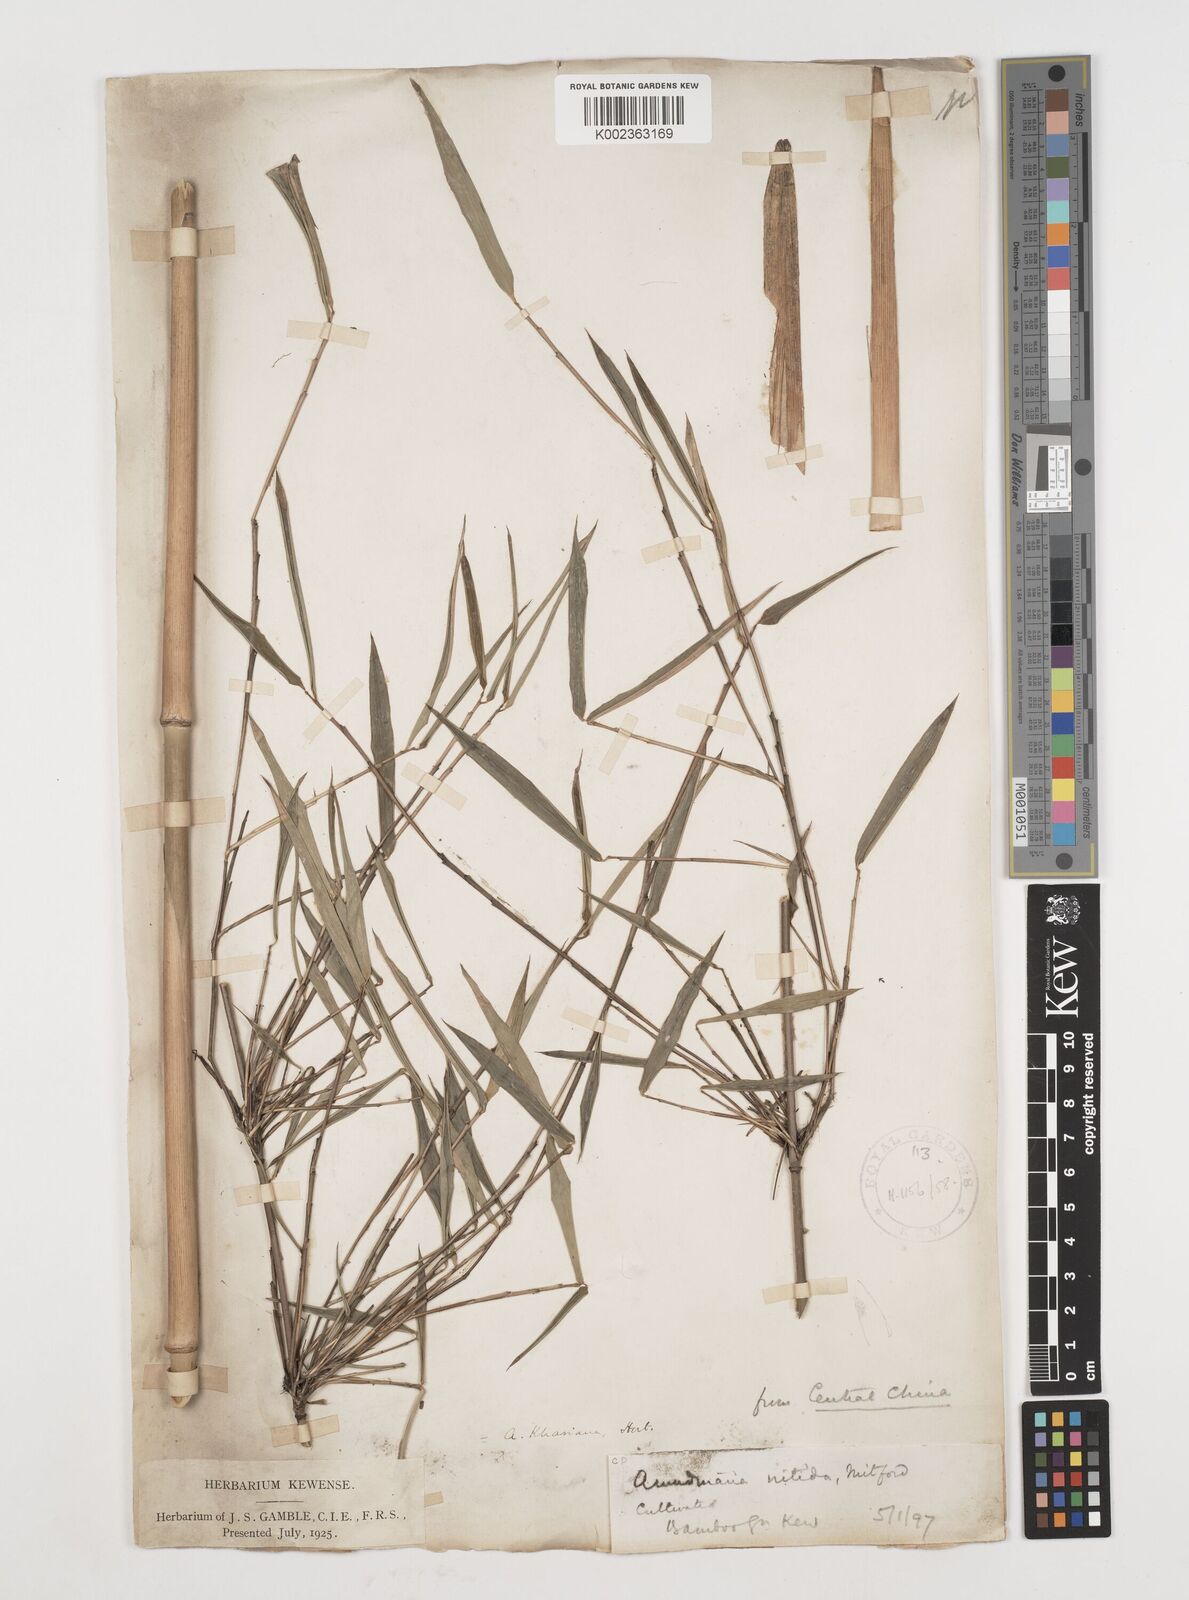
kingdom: Plantae
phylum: Tracheophyta
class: Liliopsida
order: Poales
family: Poaceae
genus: Fargesia
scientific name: Fargesia nitida ex
